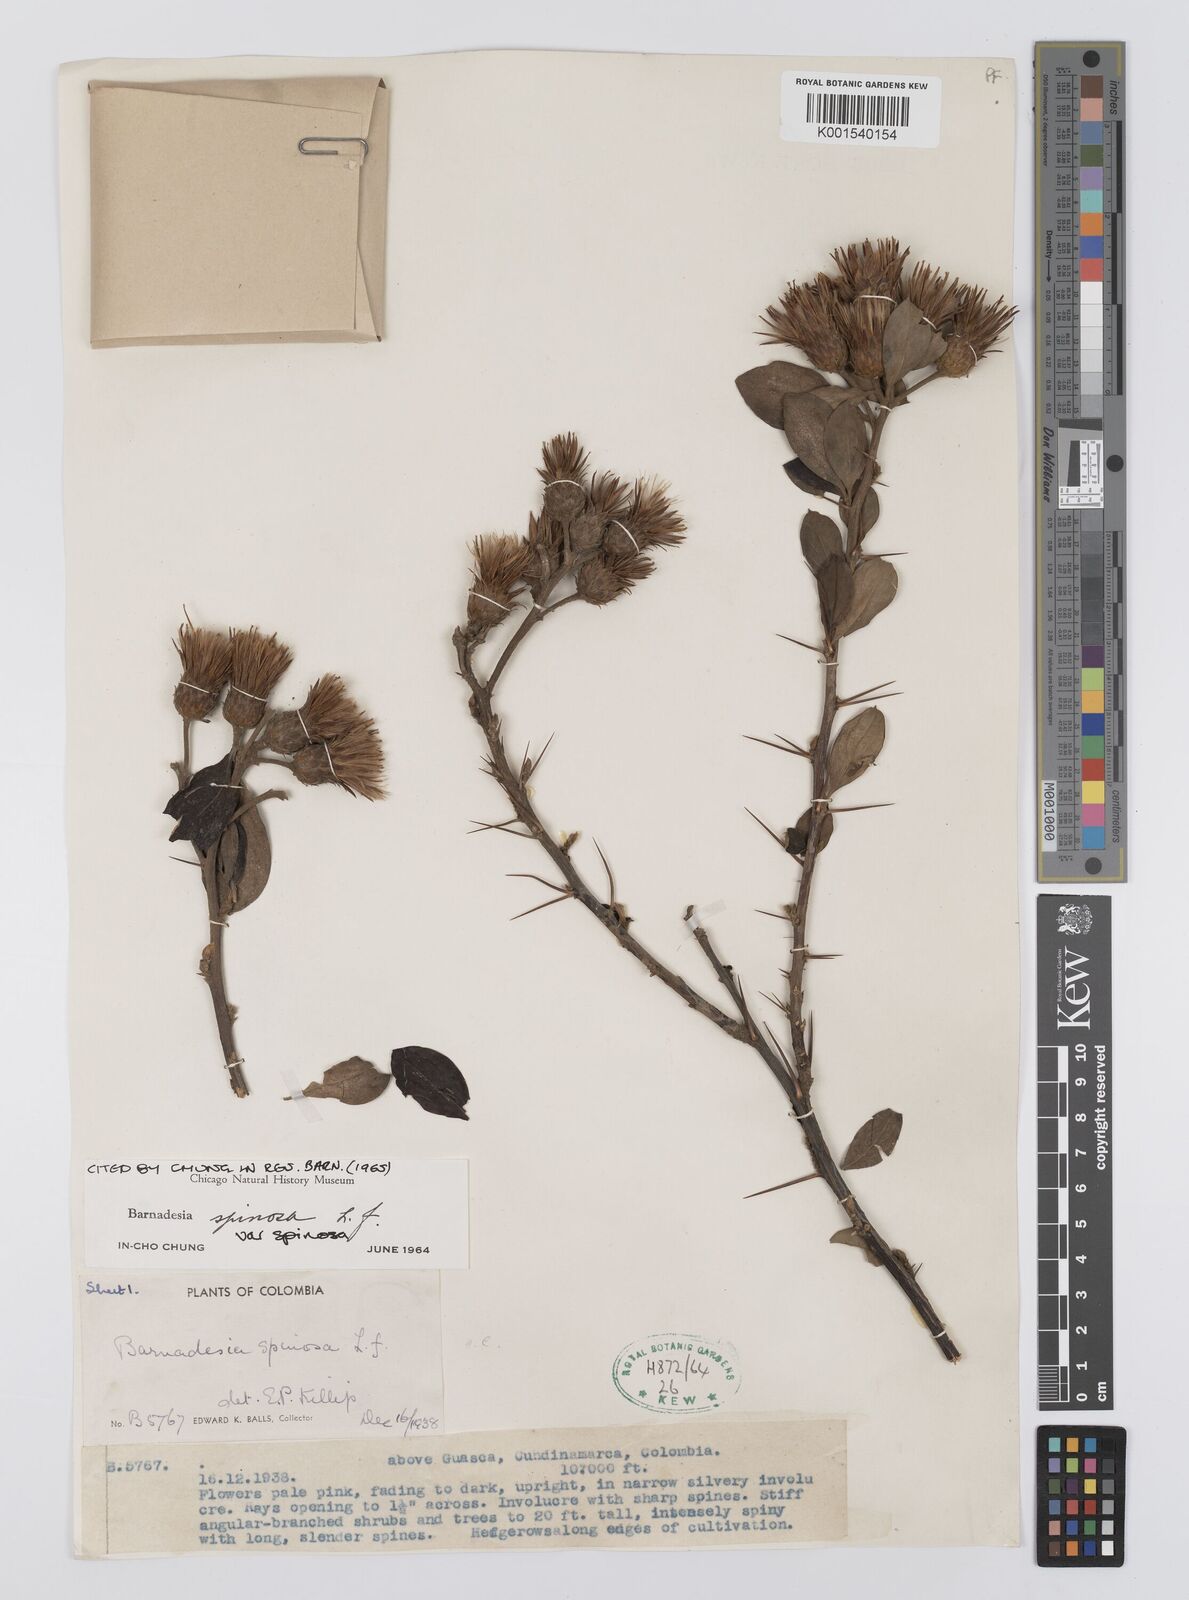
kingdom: Plantae
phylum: Tracheophyta
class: Magnoliopsida
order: Asterales
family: Asteraceae
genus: Barnadesia
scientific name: Barnadesia spinosa
